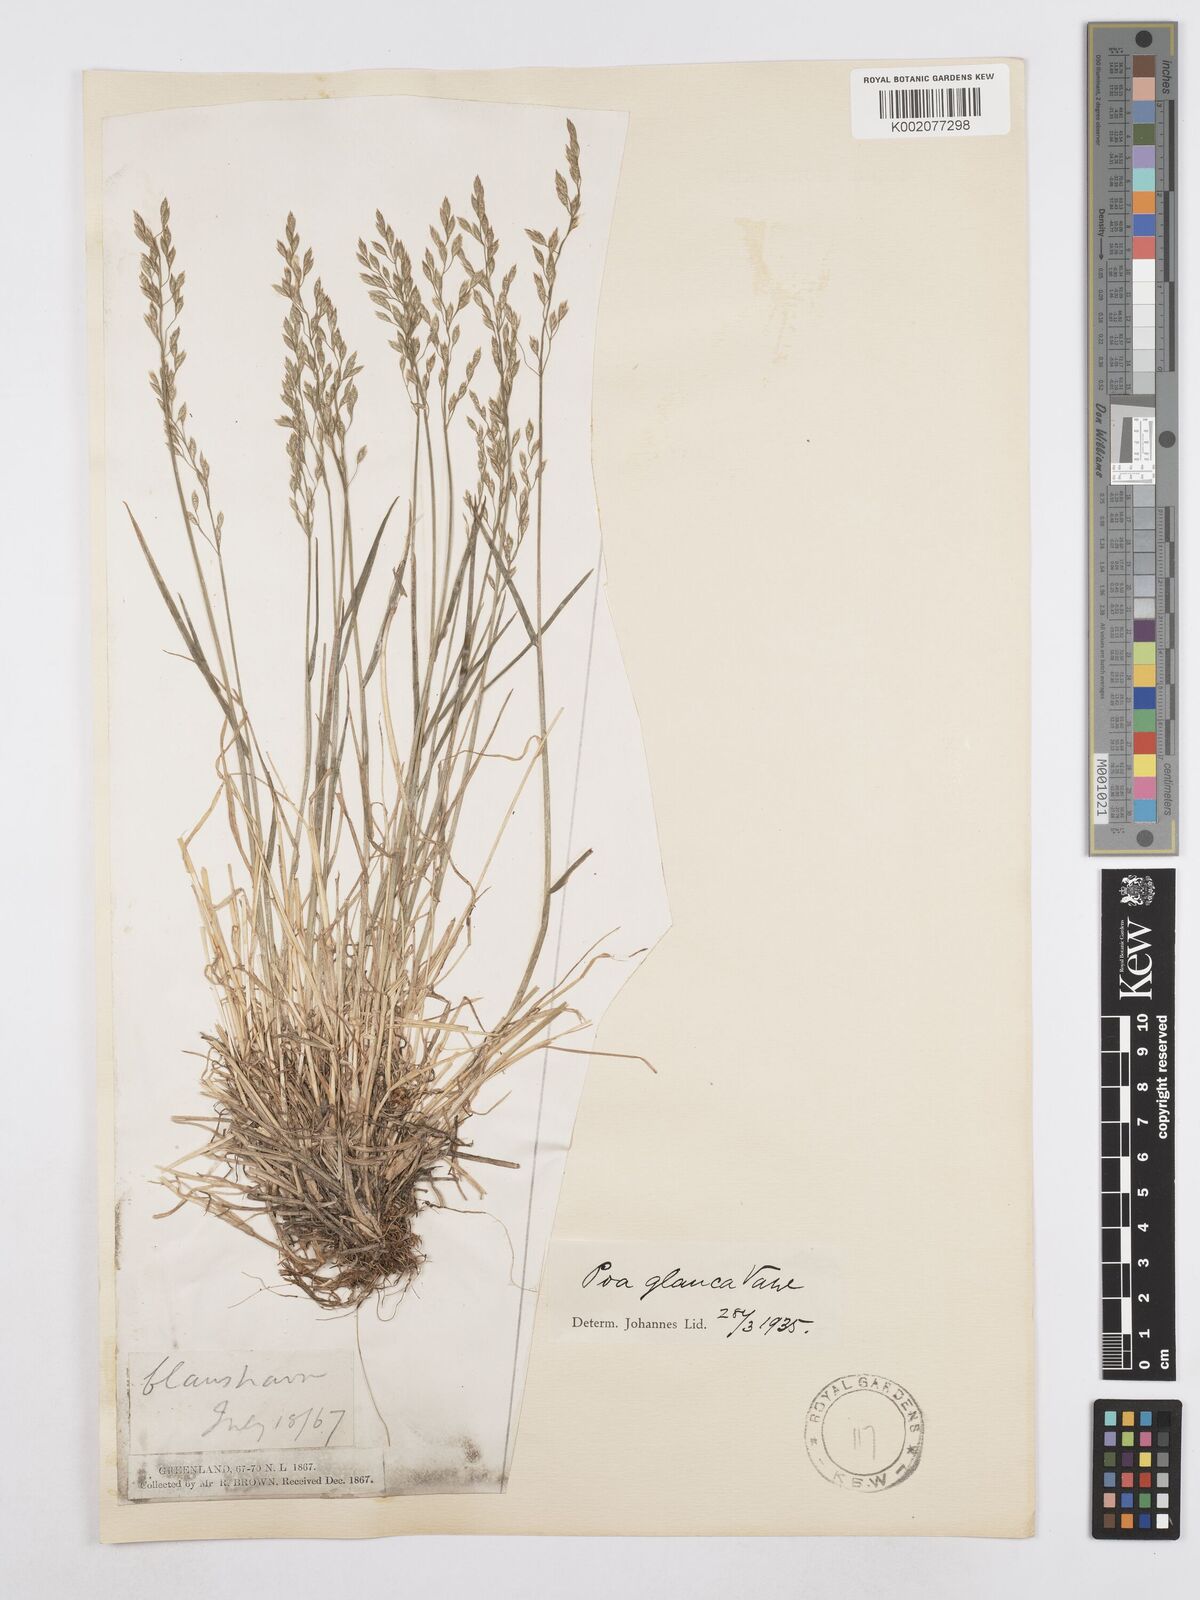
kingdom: Plantae
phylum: Tracheophyta
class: Liliopsida
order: Poales
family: Poaceae
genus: Poa
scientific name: Poa glauca
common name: Glaucous bluegrass
